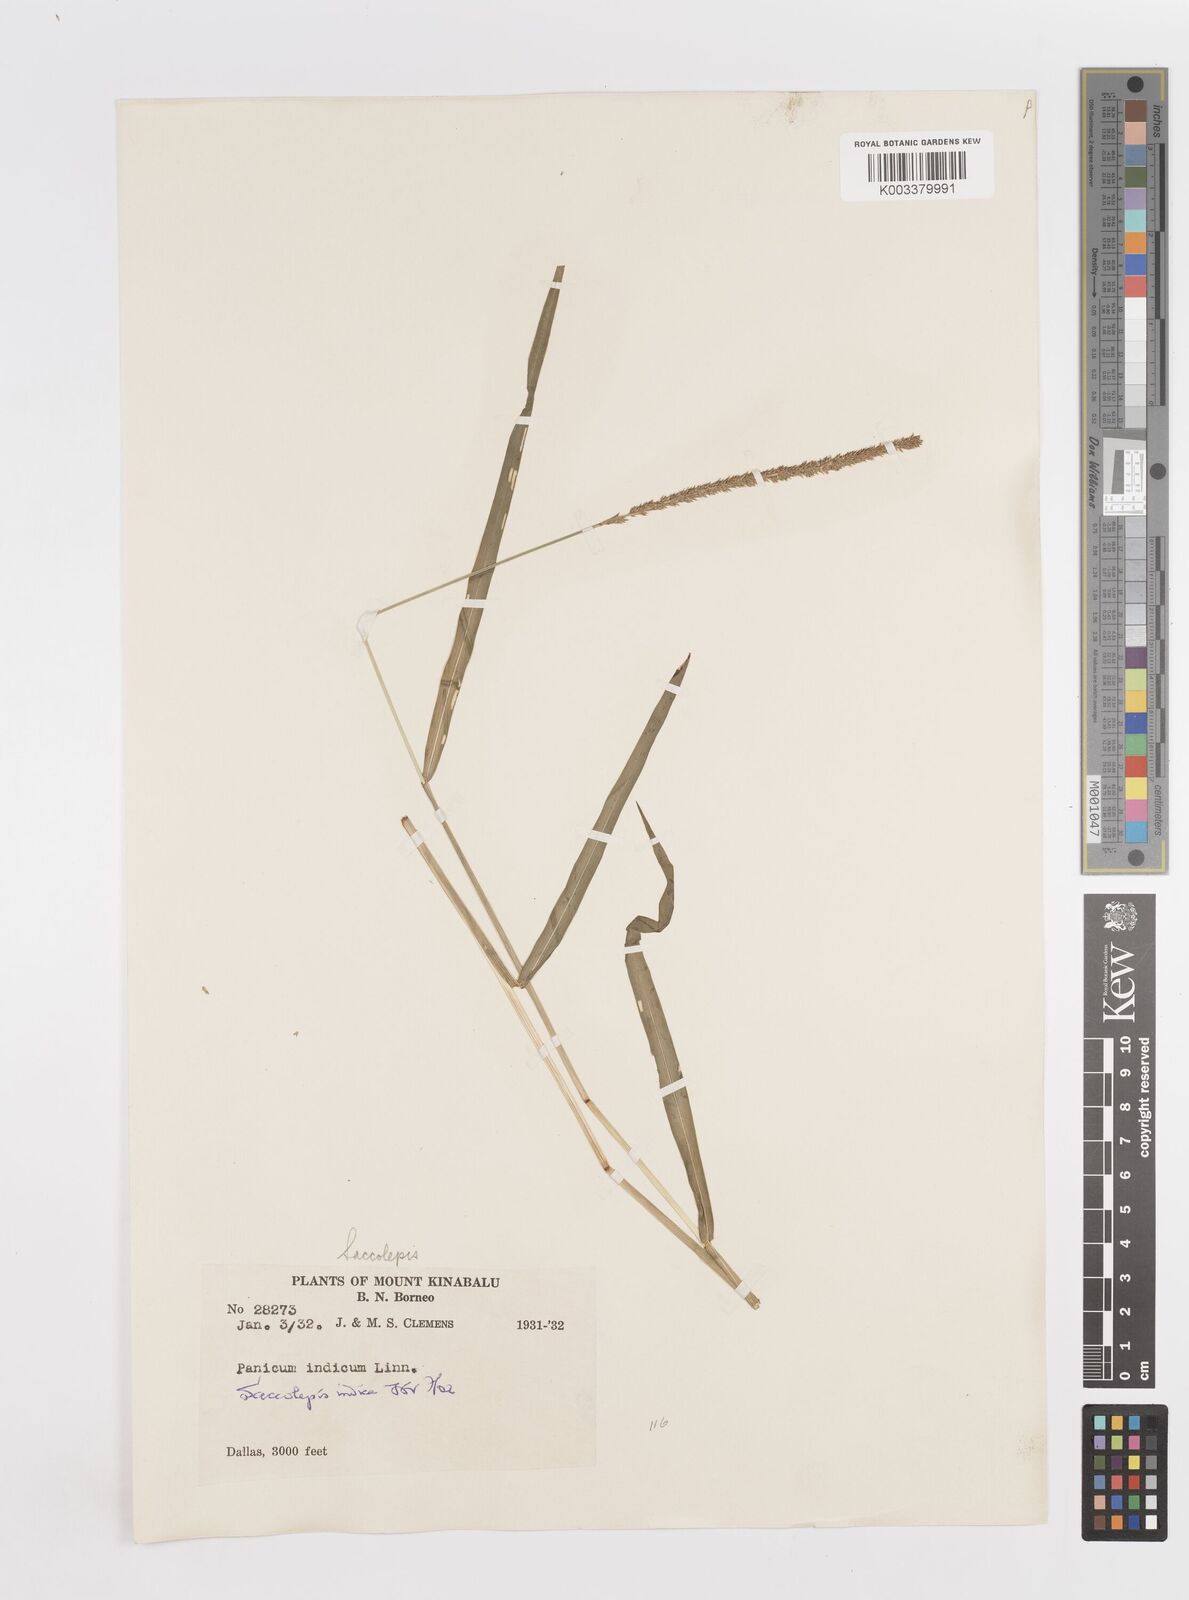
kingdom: Plantae
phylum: Tracheophyta
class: Liliopsida
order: Poales
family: Poaceae
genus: Sacciolepis
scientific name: Sacciolepis indica
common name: Glenwoodgrass
